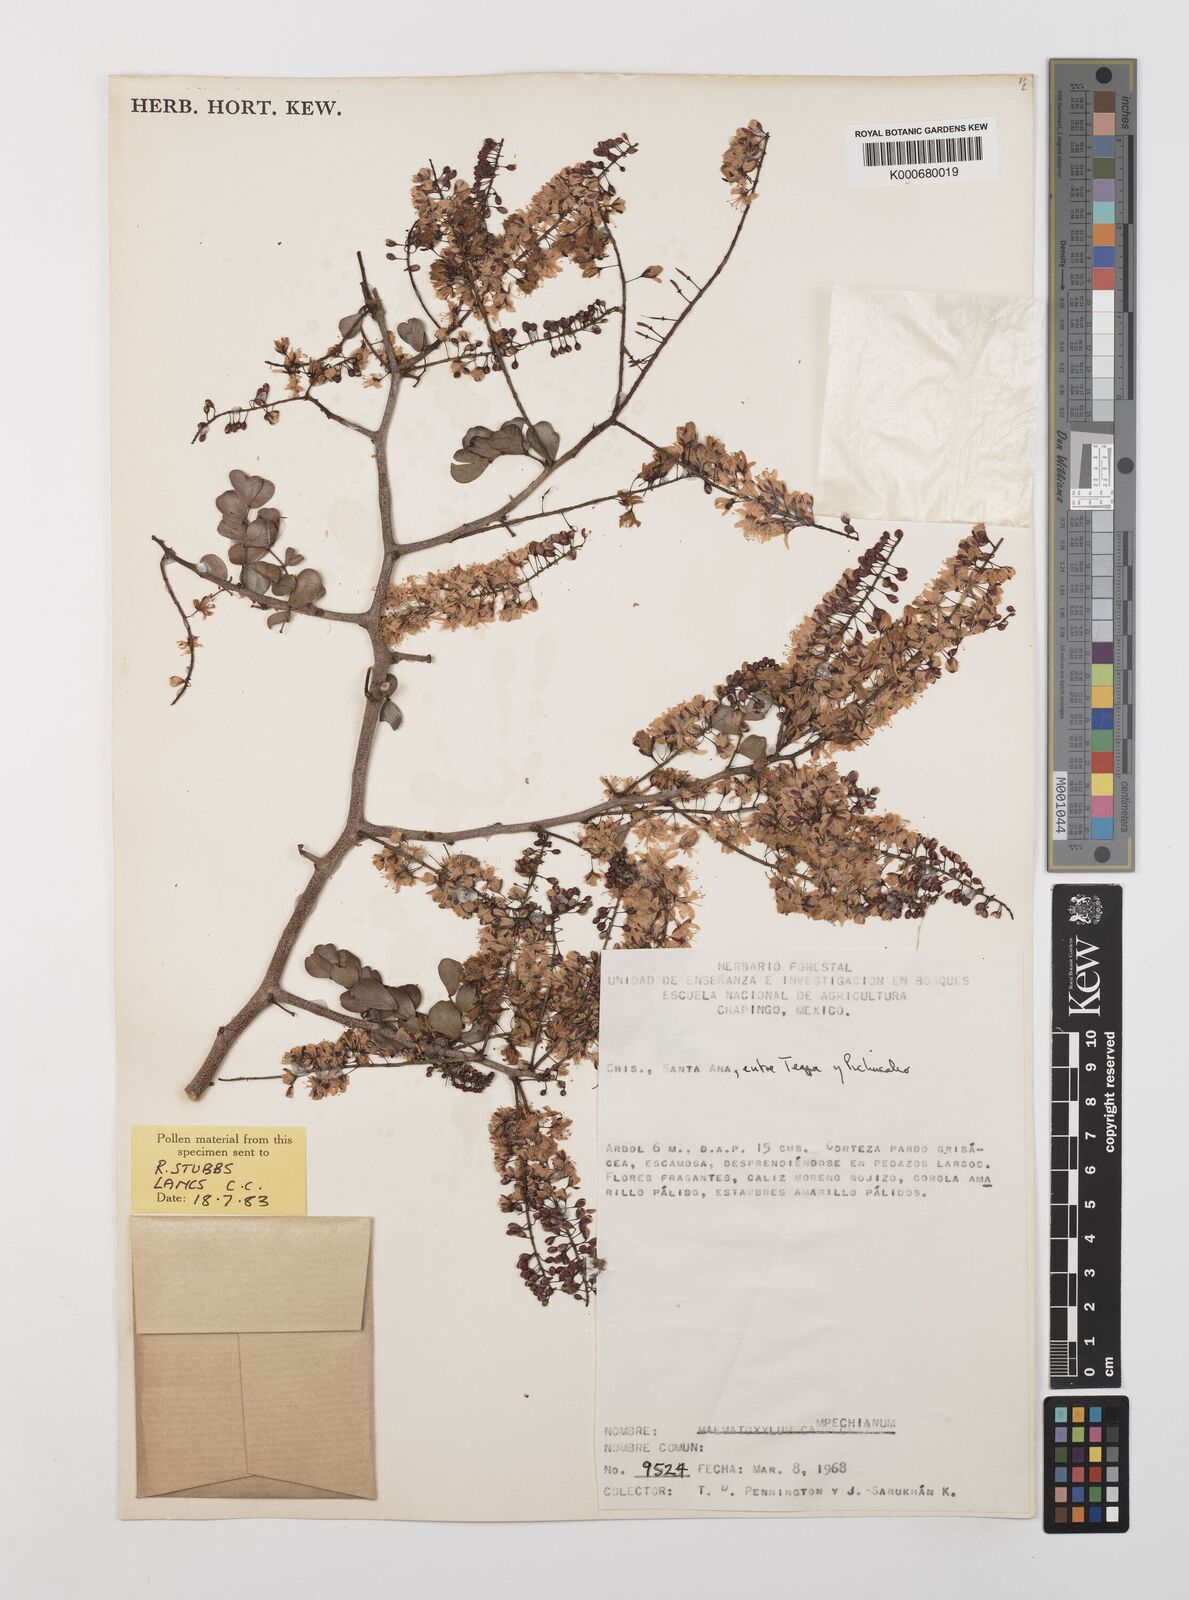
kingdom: Plantae
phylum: Tracheophyta
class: Magnoliopsida
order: Fabales
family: Fabaceae
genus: Haematoxylum
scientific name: Haematoxylum
